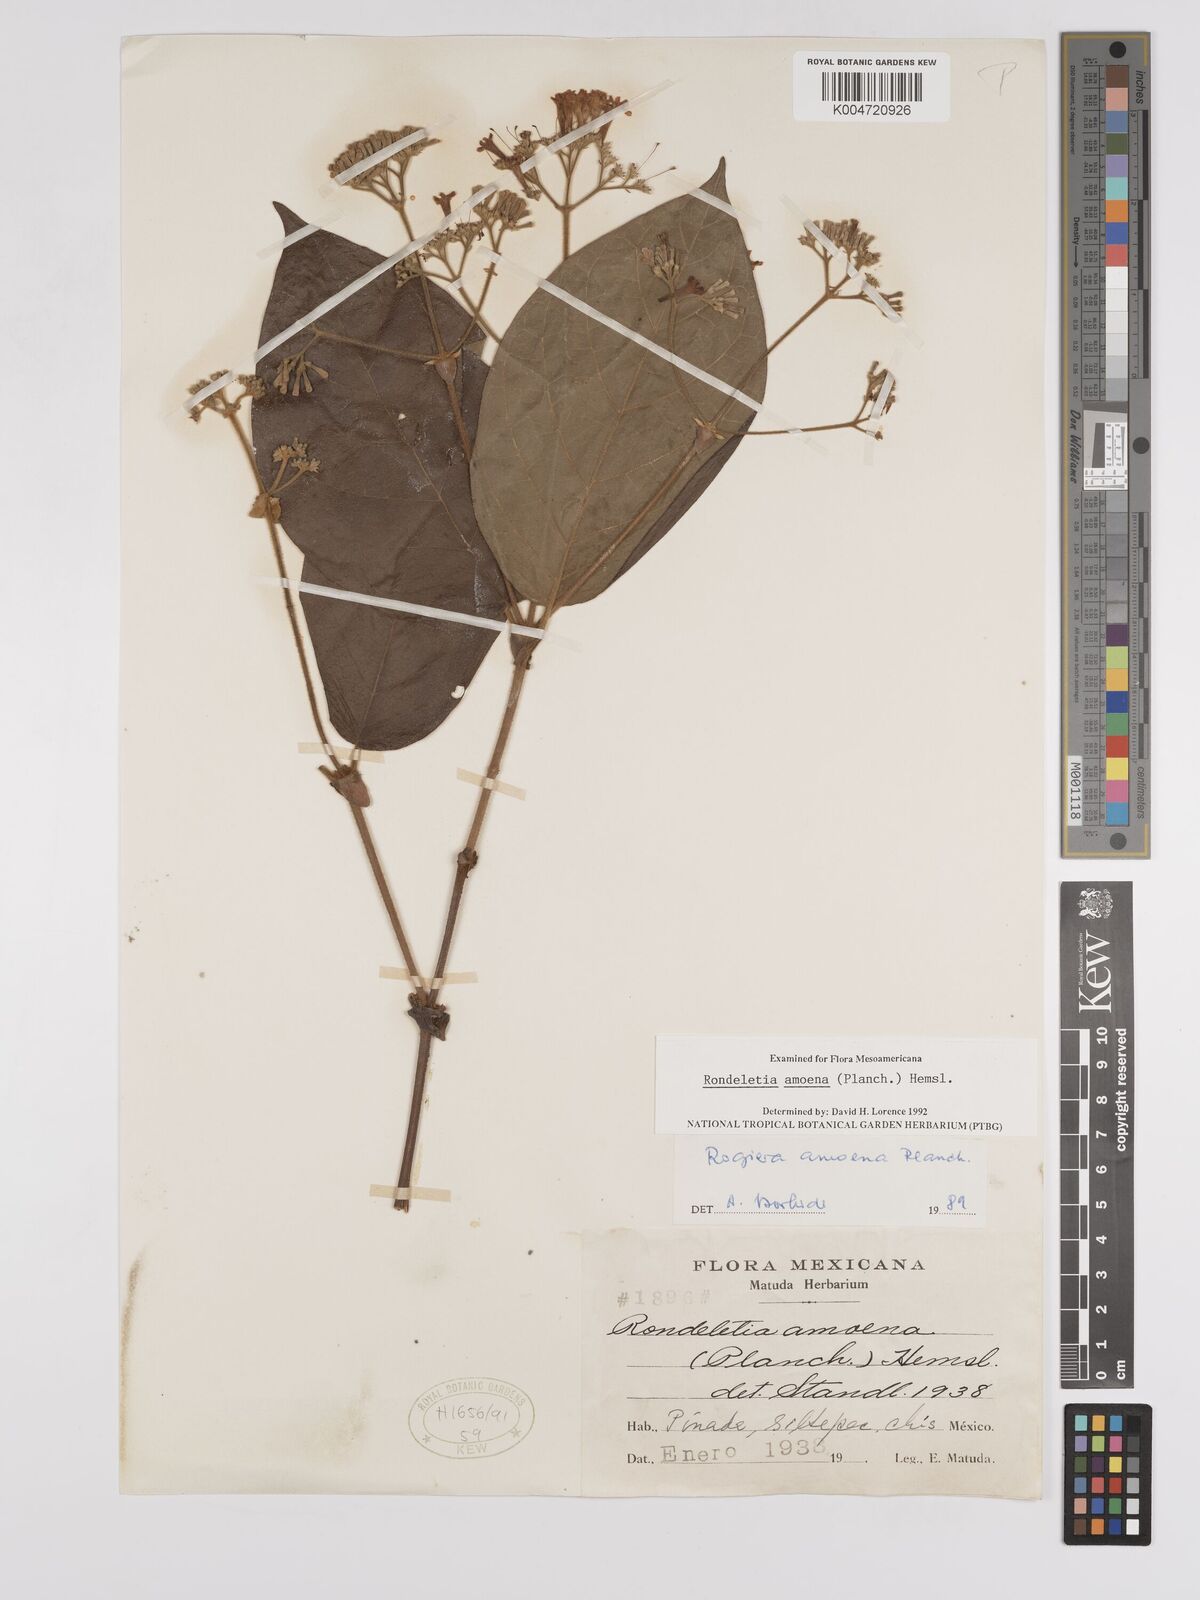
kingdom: Plantae
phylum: Tracheophyta
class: Magnoliopsida
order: Gentianales
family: Rubiaceae
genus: Rogiera
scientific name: Rogiera amoena
